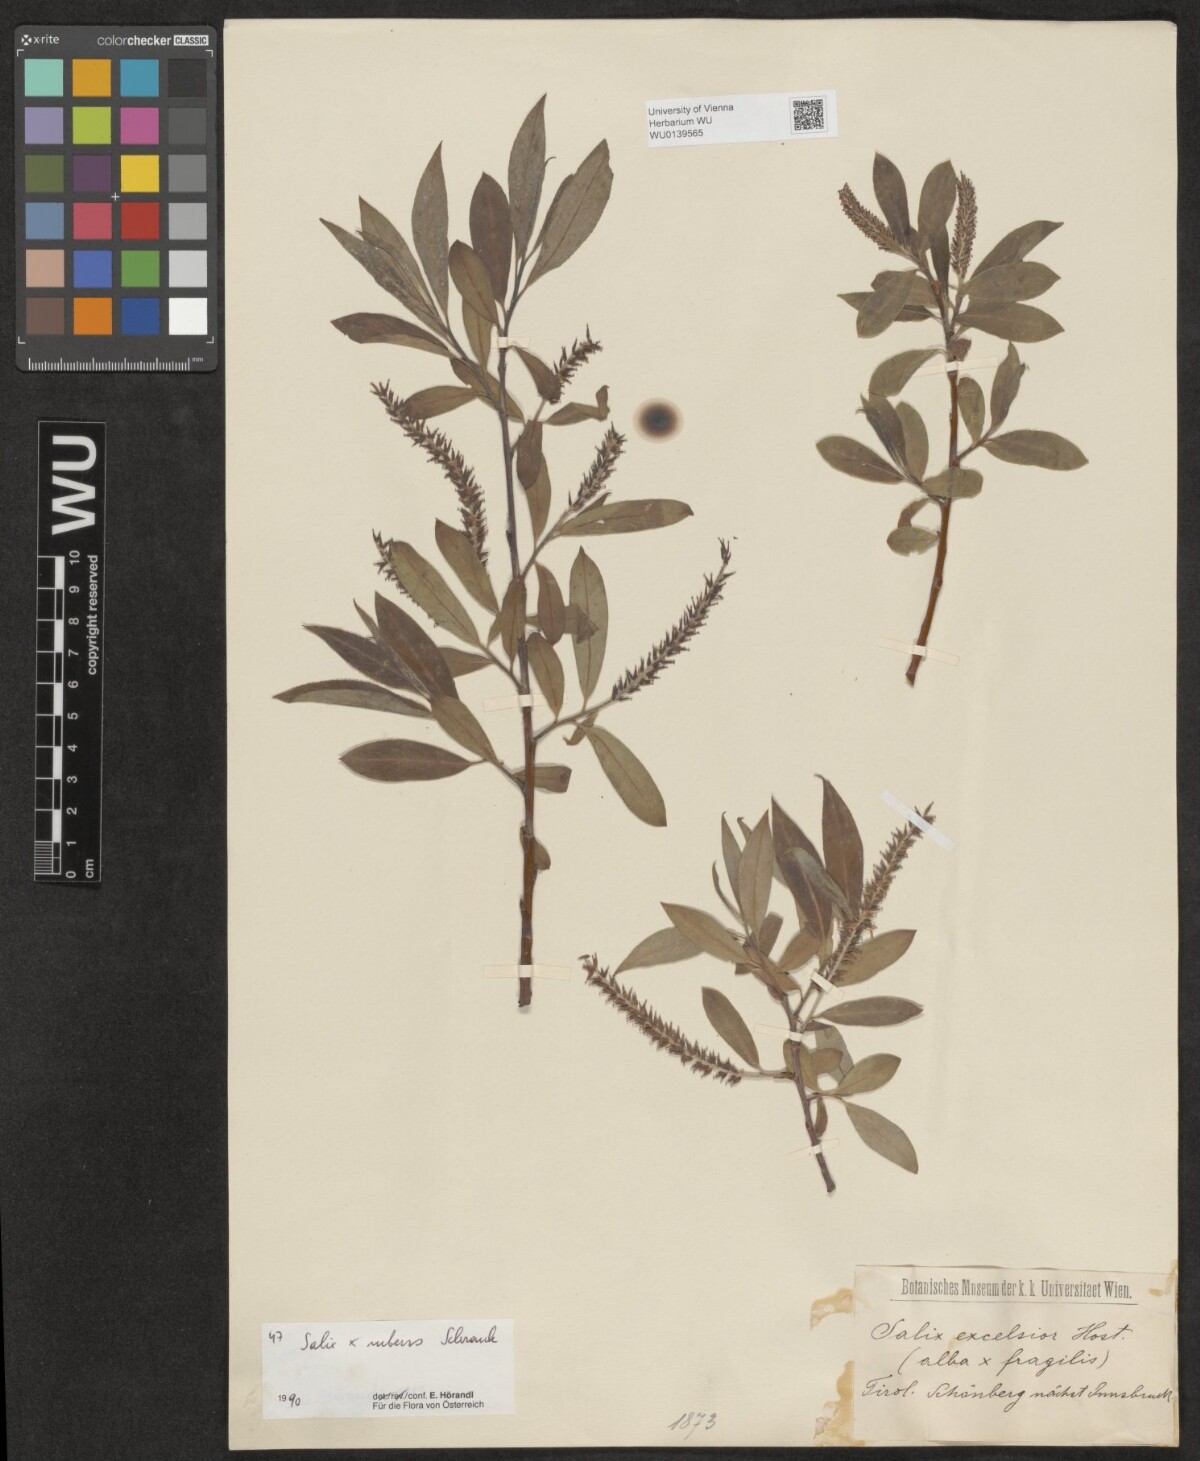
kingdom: Plantae
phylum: Tracheophyta
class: Magnoliopsida
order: Malpighiales
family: Salicaceae
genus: Salix
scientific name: Salix rubens
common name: Hybrid crack willow
